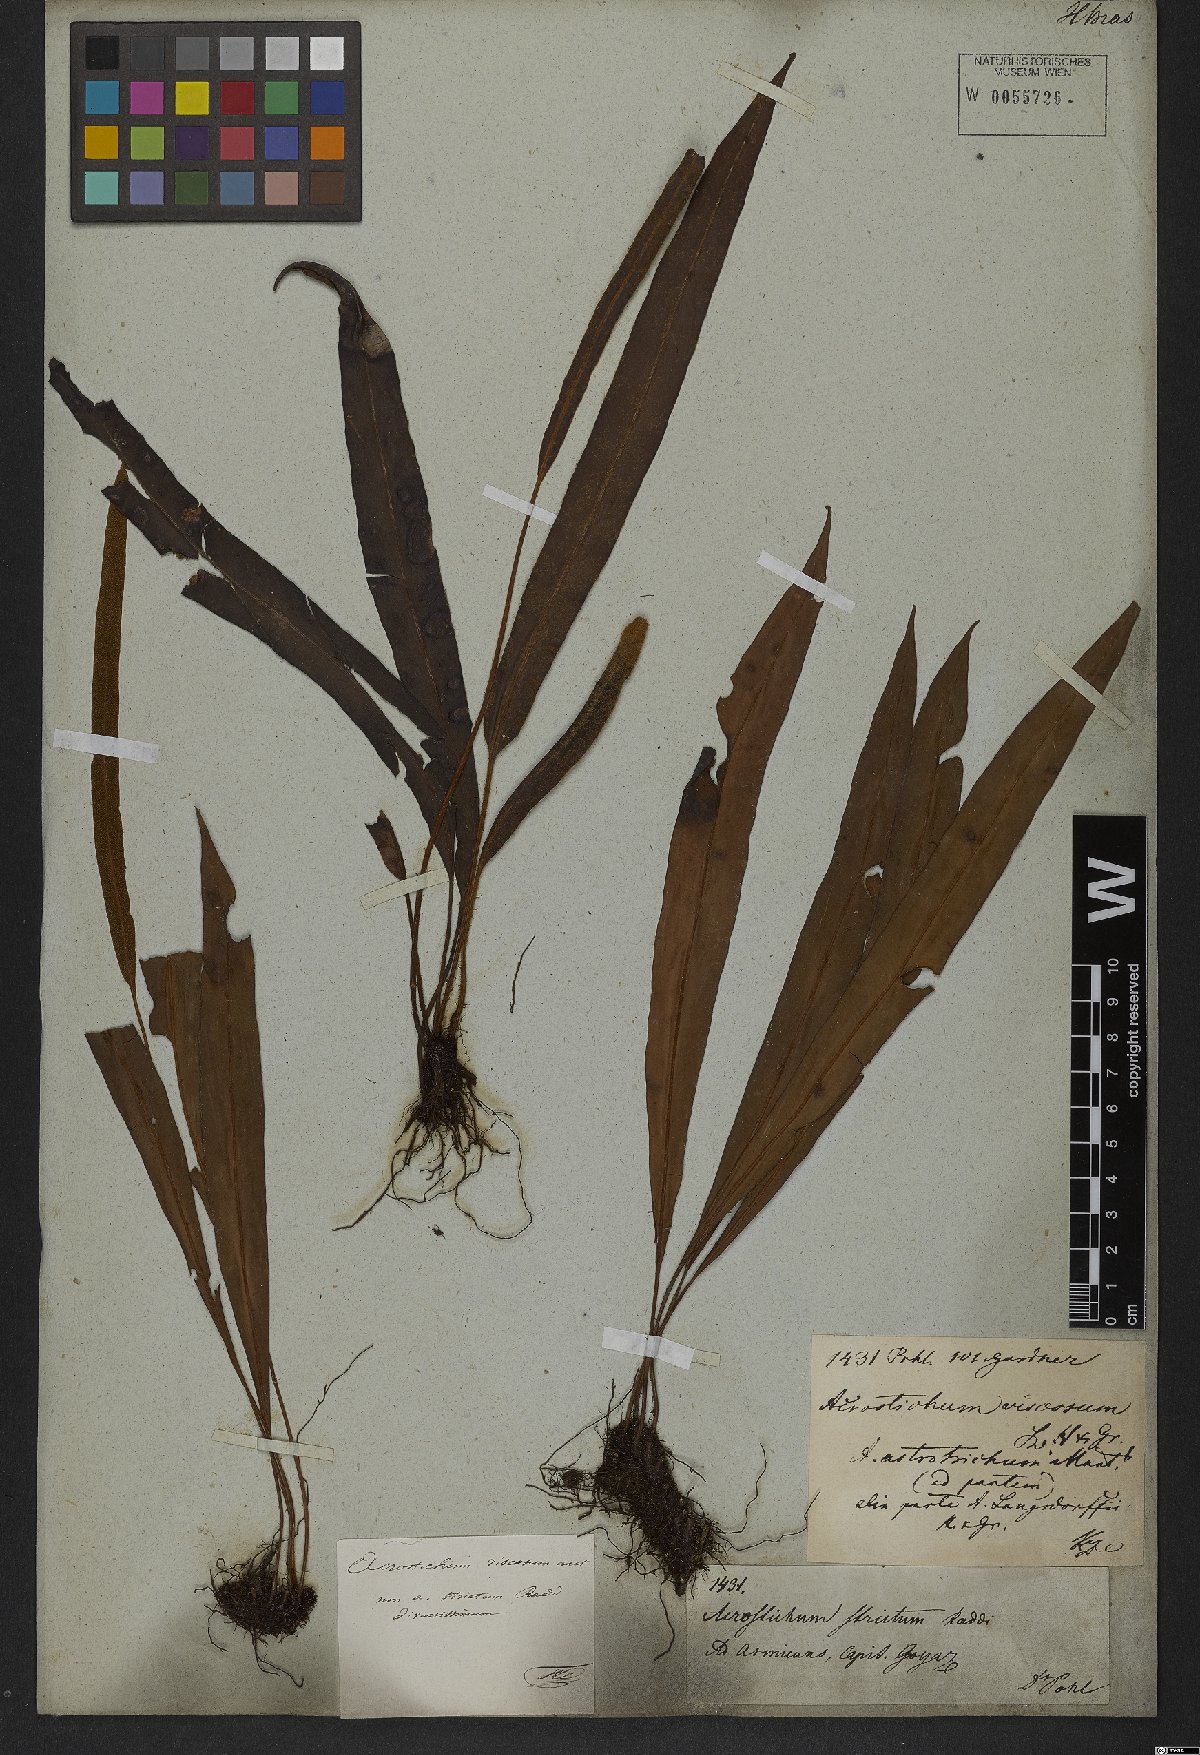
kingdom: Plantae
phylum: Tracheophyta
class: Polypodiopsida
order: Polypodiales
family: Dryopteridaceae
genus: Elaphoglossum
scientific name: Elaphoglossum petiolatum
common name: Graceful tonguefern
